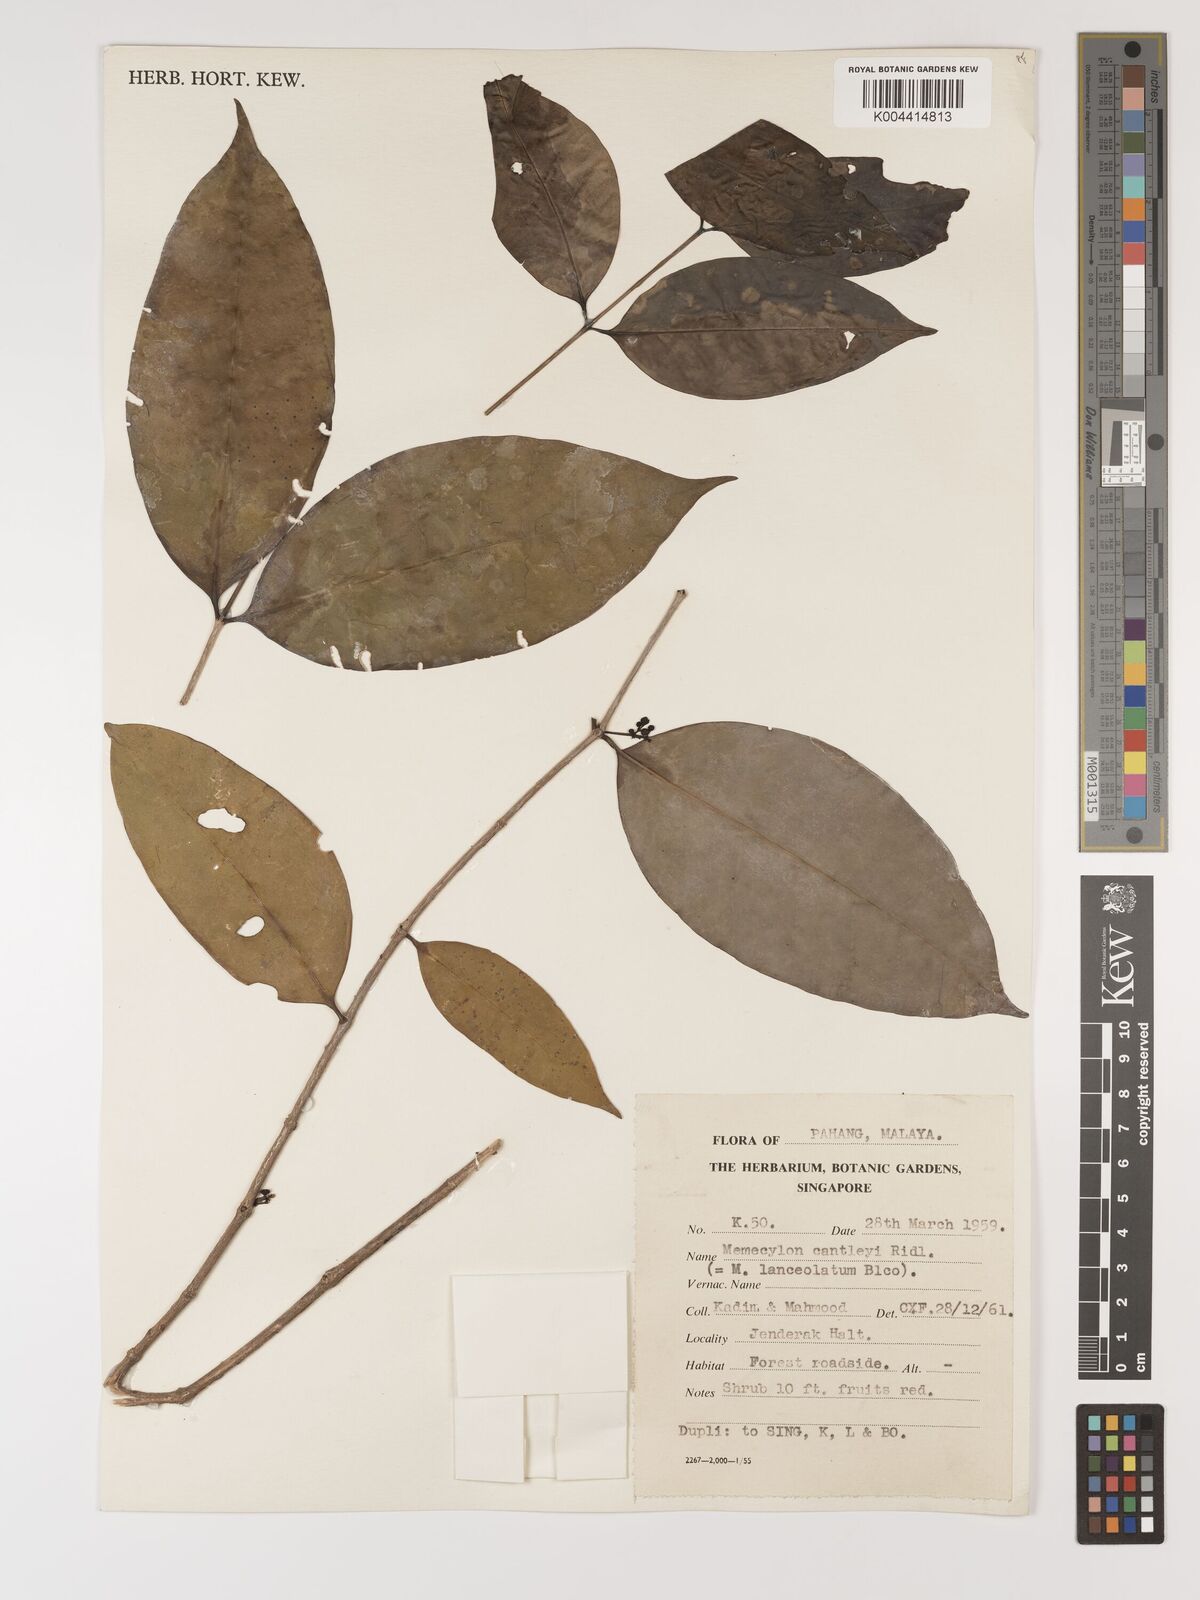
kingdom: Plantae
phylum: Tracheophyta
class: Magnoliopsida
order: Myrtales
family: Melastomataceae
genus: Memecylon
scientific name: Memecylon cantleyi
